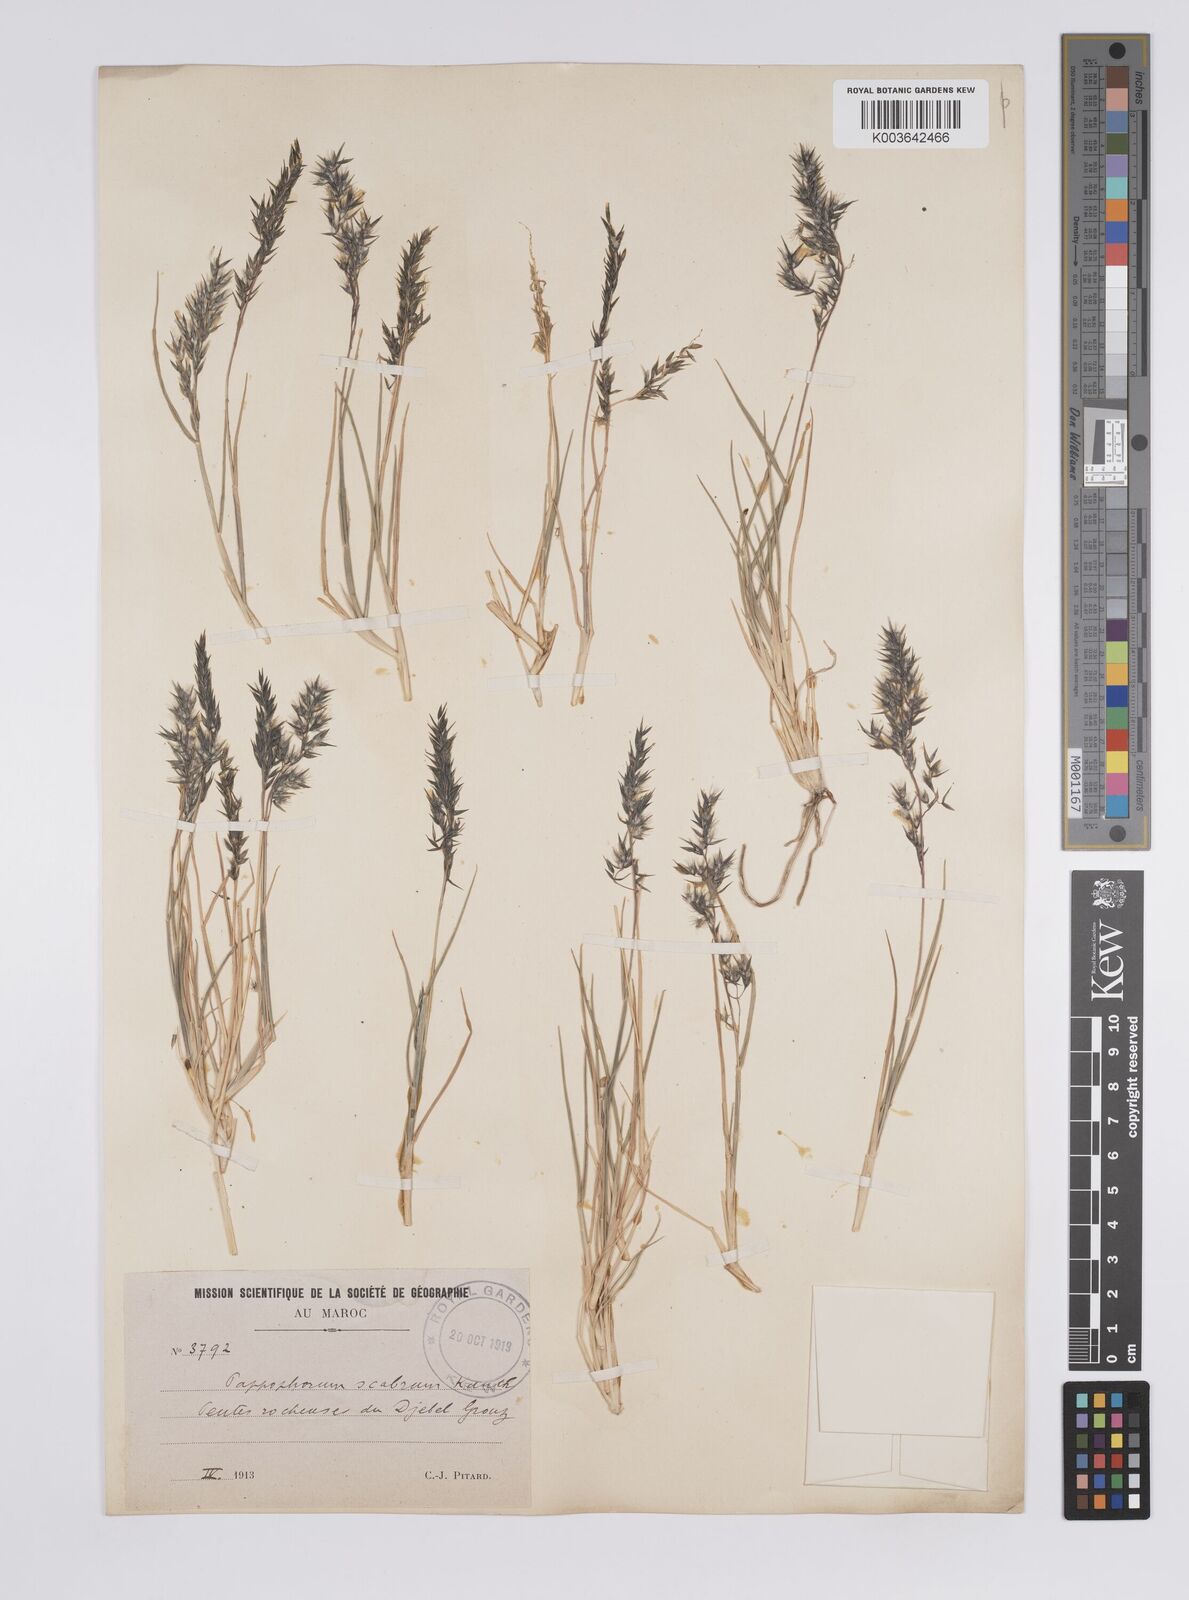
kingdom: Plantae
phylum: Tracheophyta
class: Liliopsida
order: Poales
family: Poaceae
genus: Enneapogon
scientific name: Enneapogon scaber
